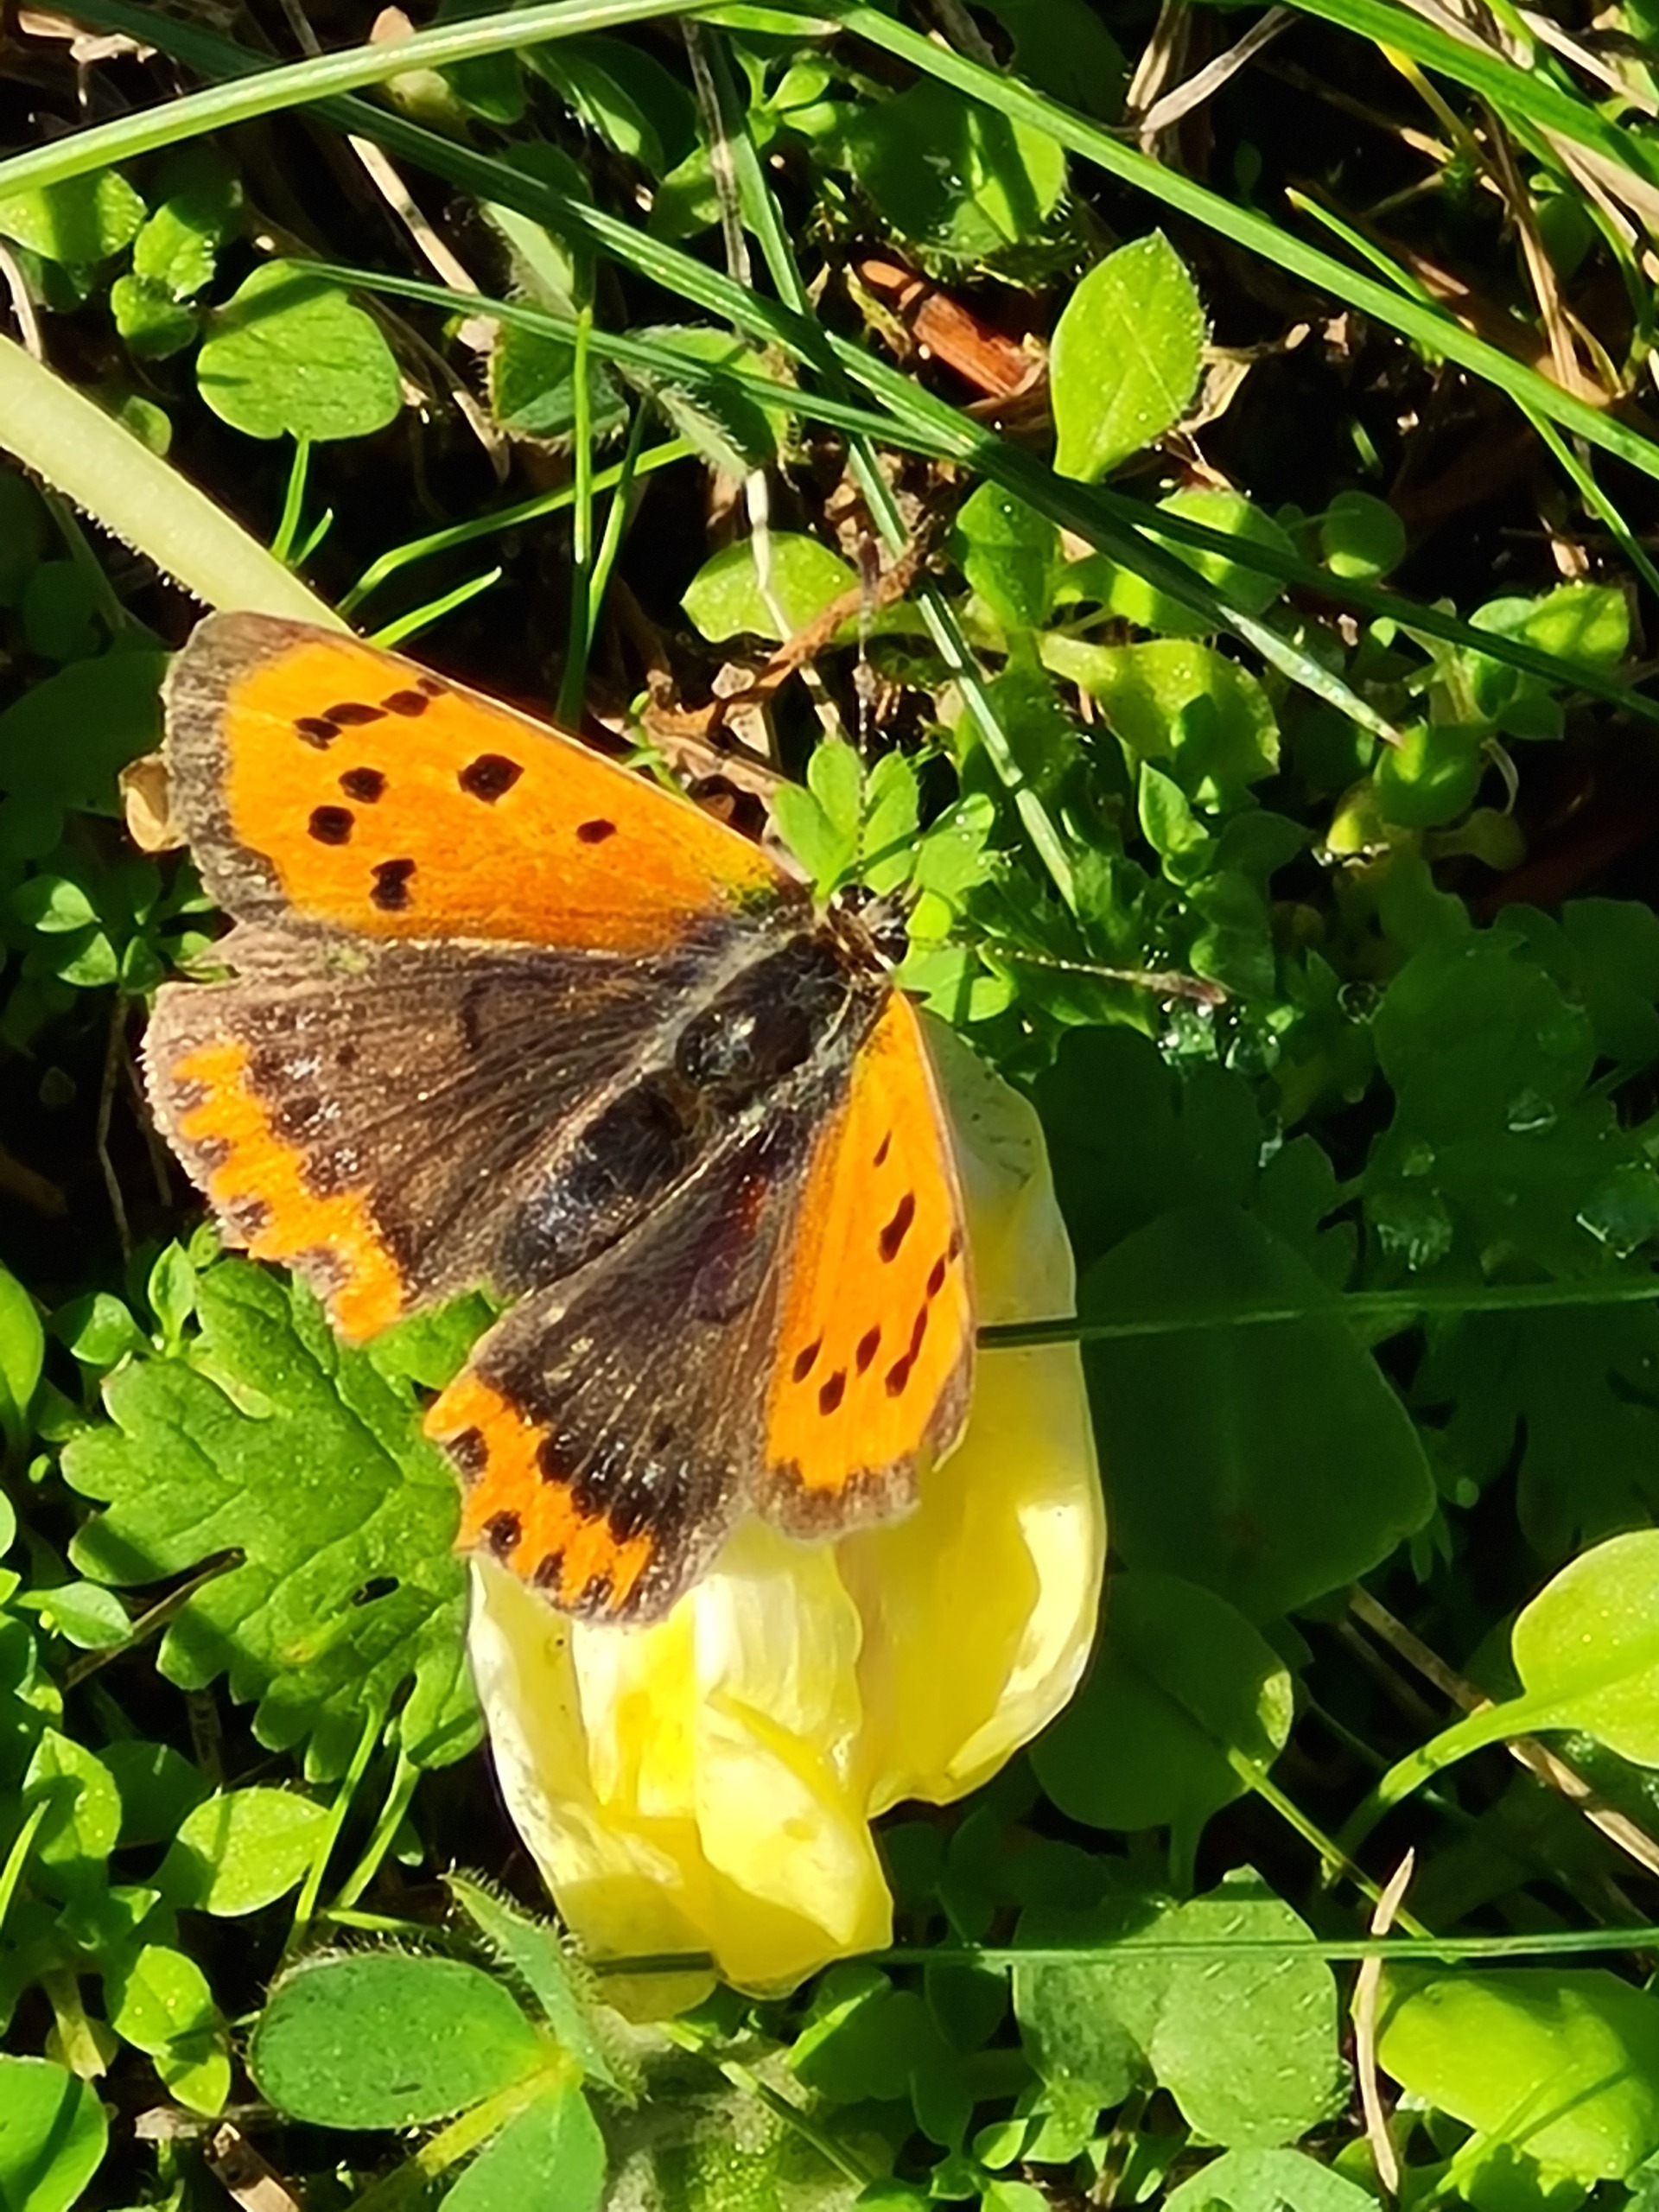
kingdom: Animalia
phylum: Arthropoda
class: Insecta
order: Lepidoptera
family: Lycaenidae
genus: Lycaena
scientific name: Lycaena phlaeas
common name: Lille ildfugl
